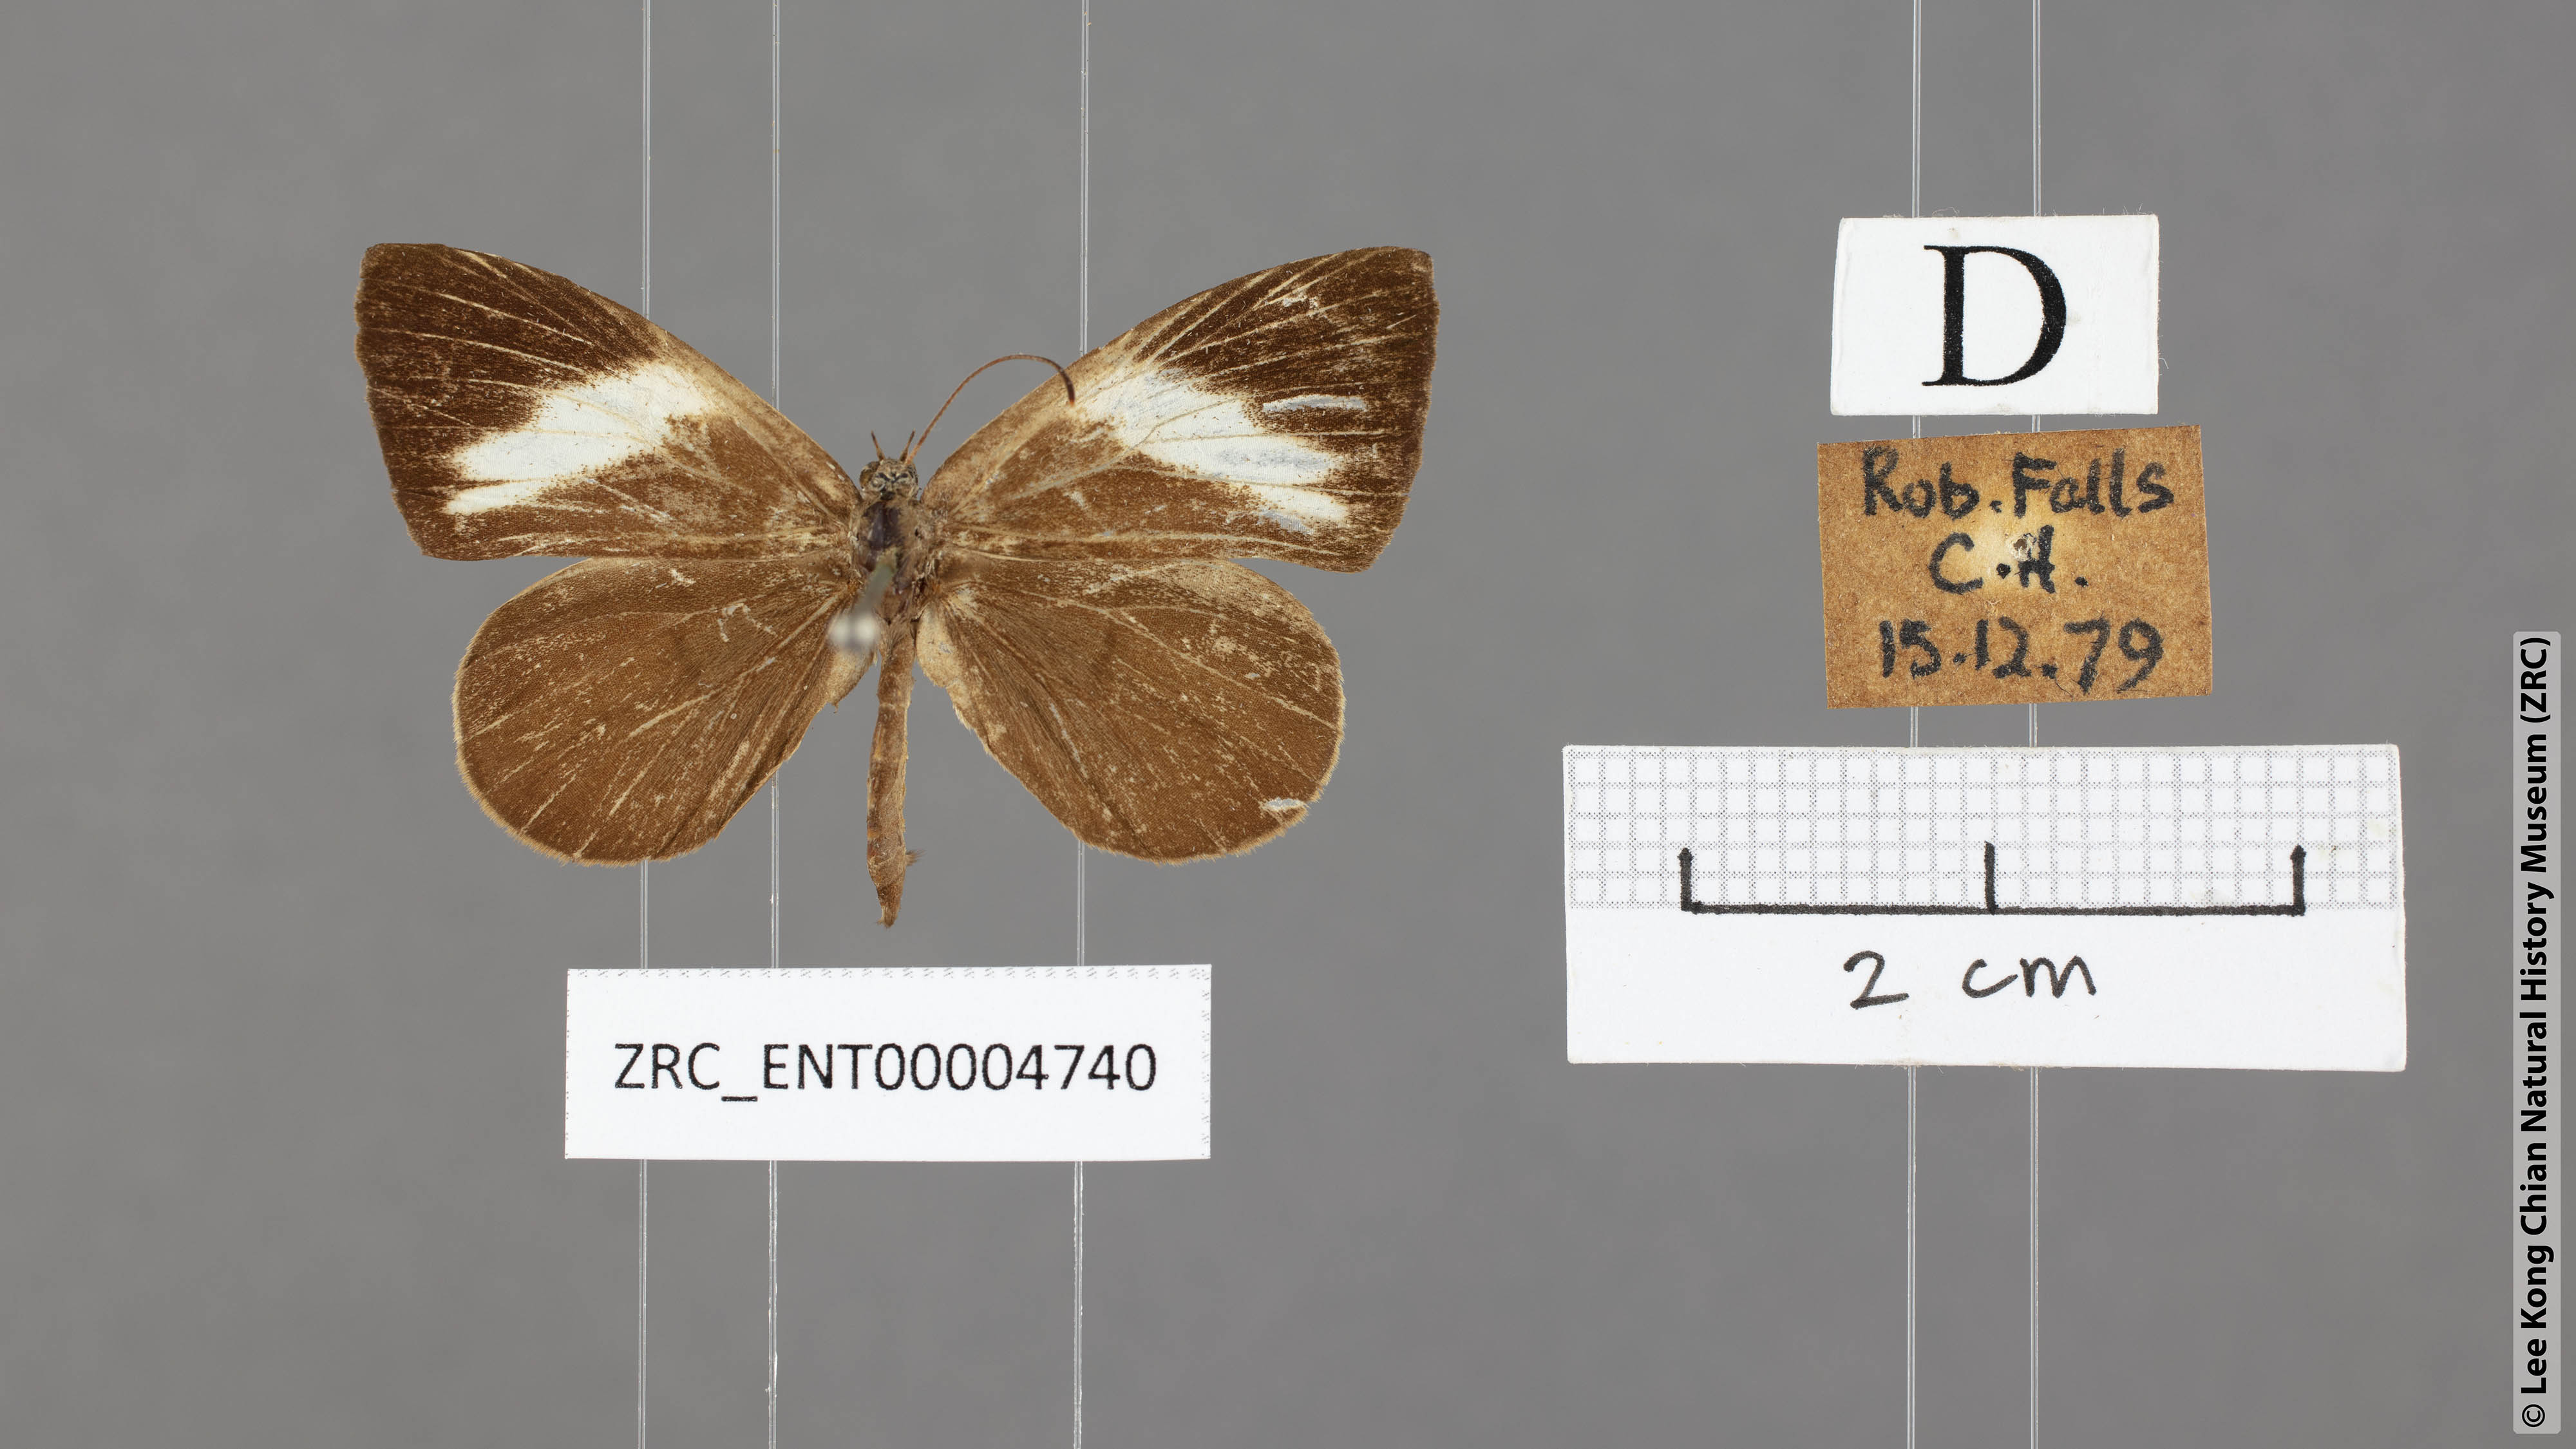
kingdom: Animalia
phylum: Arthropoda
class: Insecta
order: Lepidoptera
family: Lycaenidae
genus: Miletus
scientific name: Miletus nymphis
